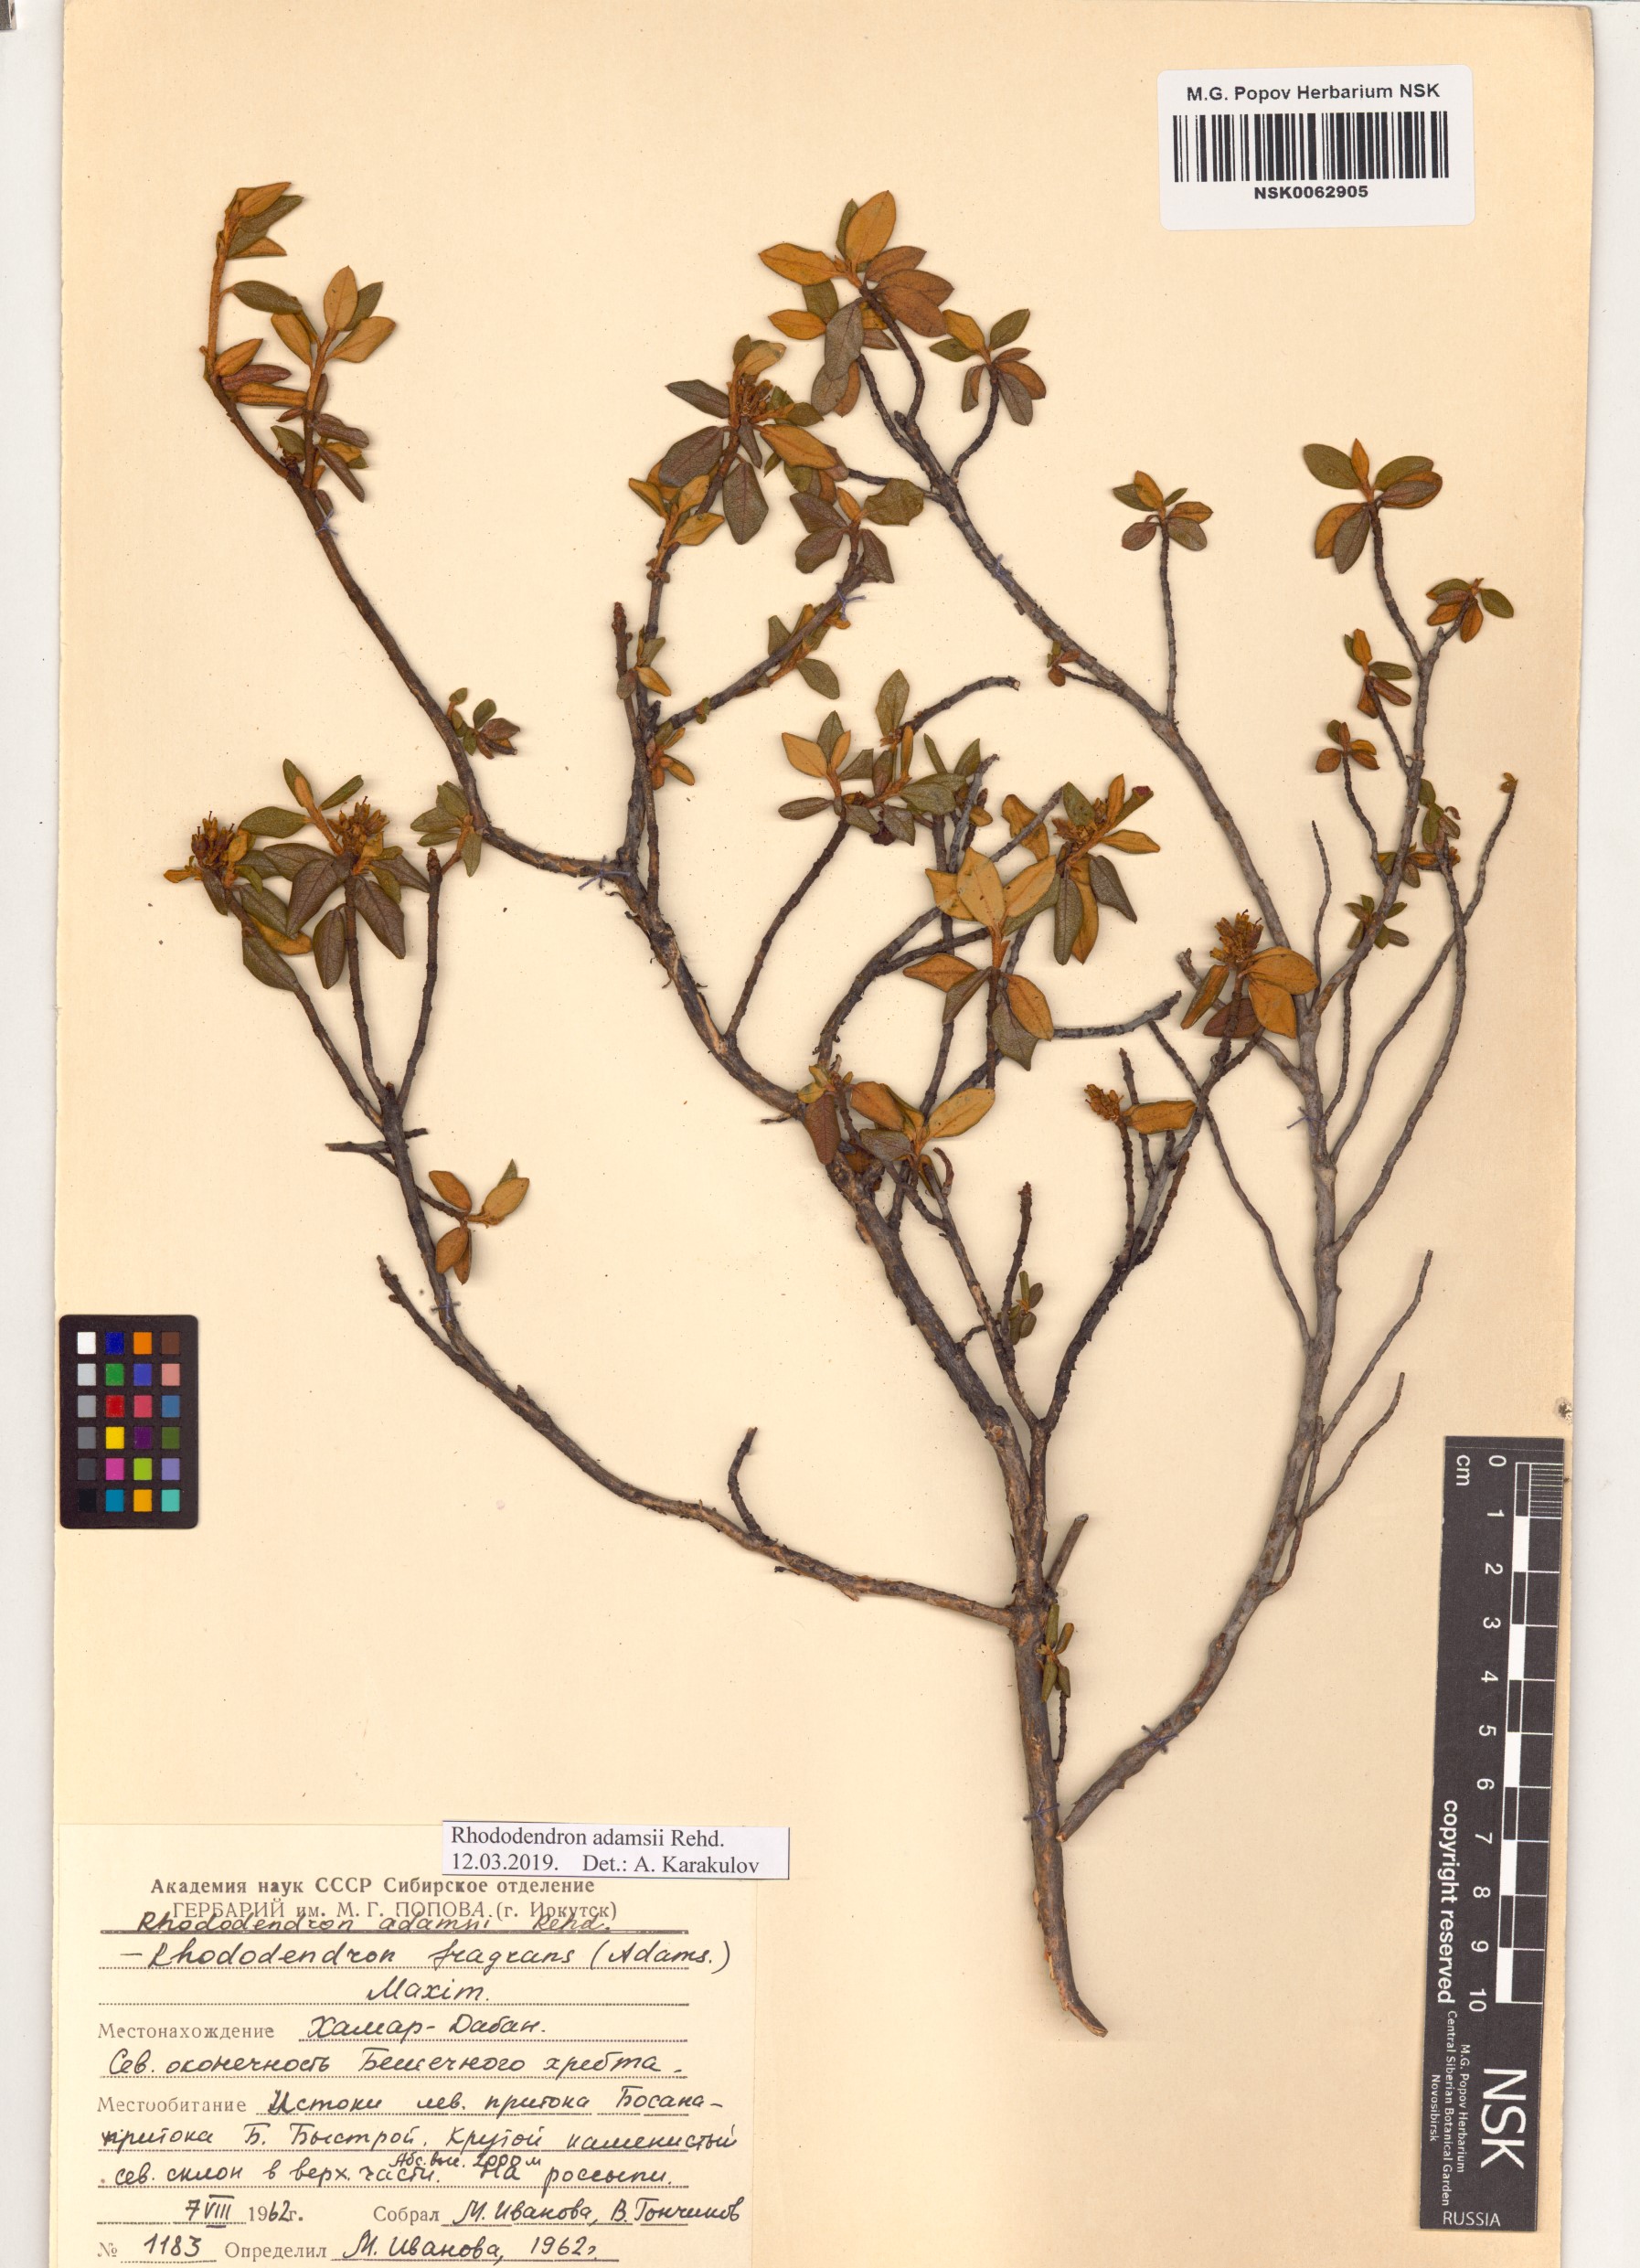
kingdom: Plantae
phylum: Tracheophyta
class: Magnoliopsida
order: Ericales
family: Ericaceae
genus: Rhododendron
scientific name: Rhododendron adamsii
